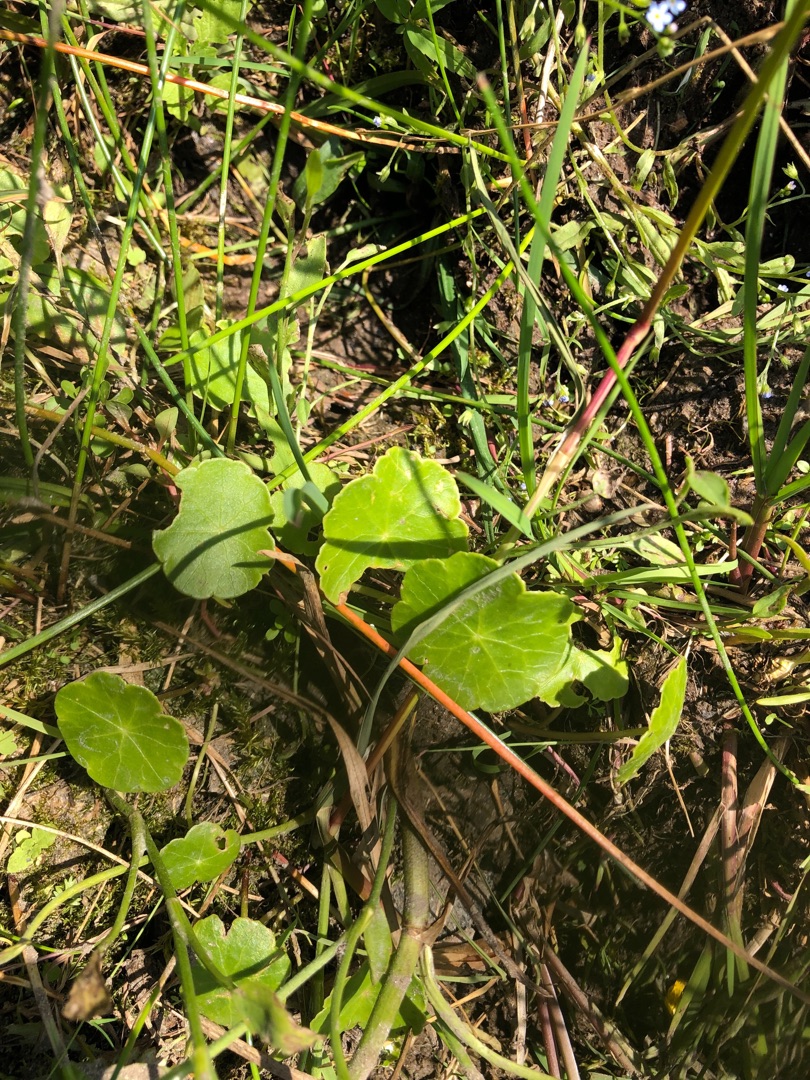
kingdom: Plantae
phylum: Tracheophyta
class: Magnoliopsida
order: Apiales
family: Araliaceae
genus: Hydrocotyle
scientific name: Hydrocotyle vulgaris
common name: Vandnavle
